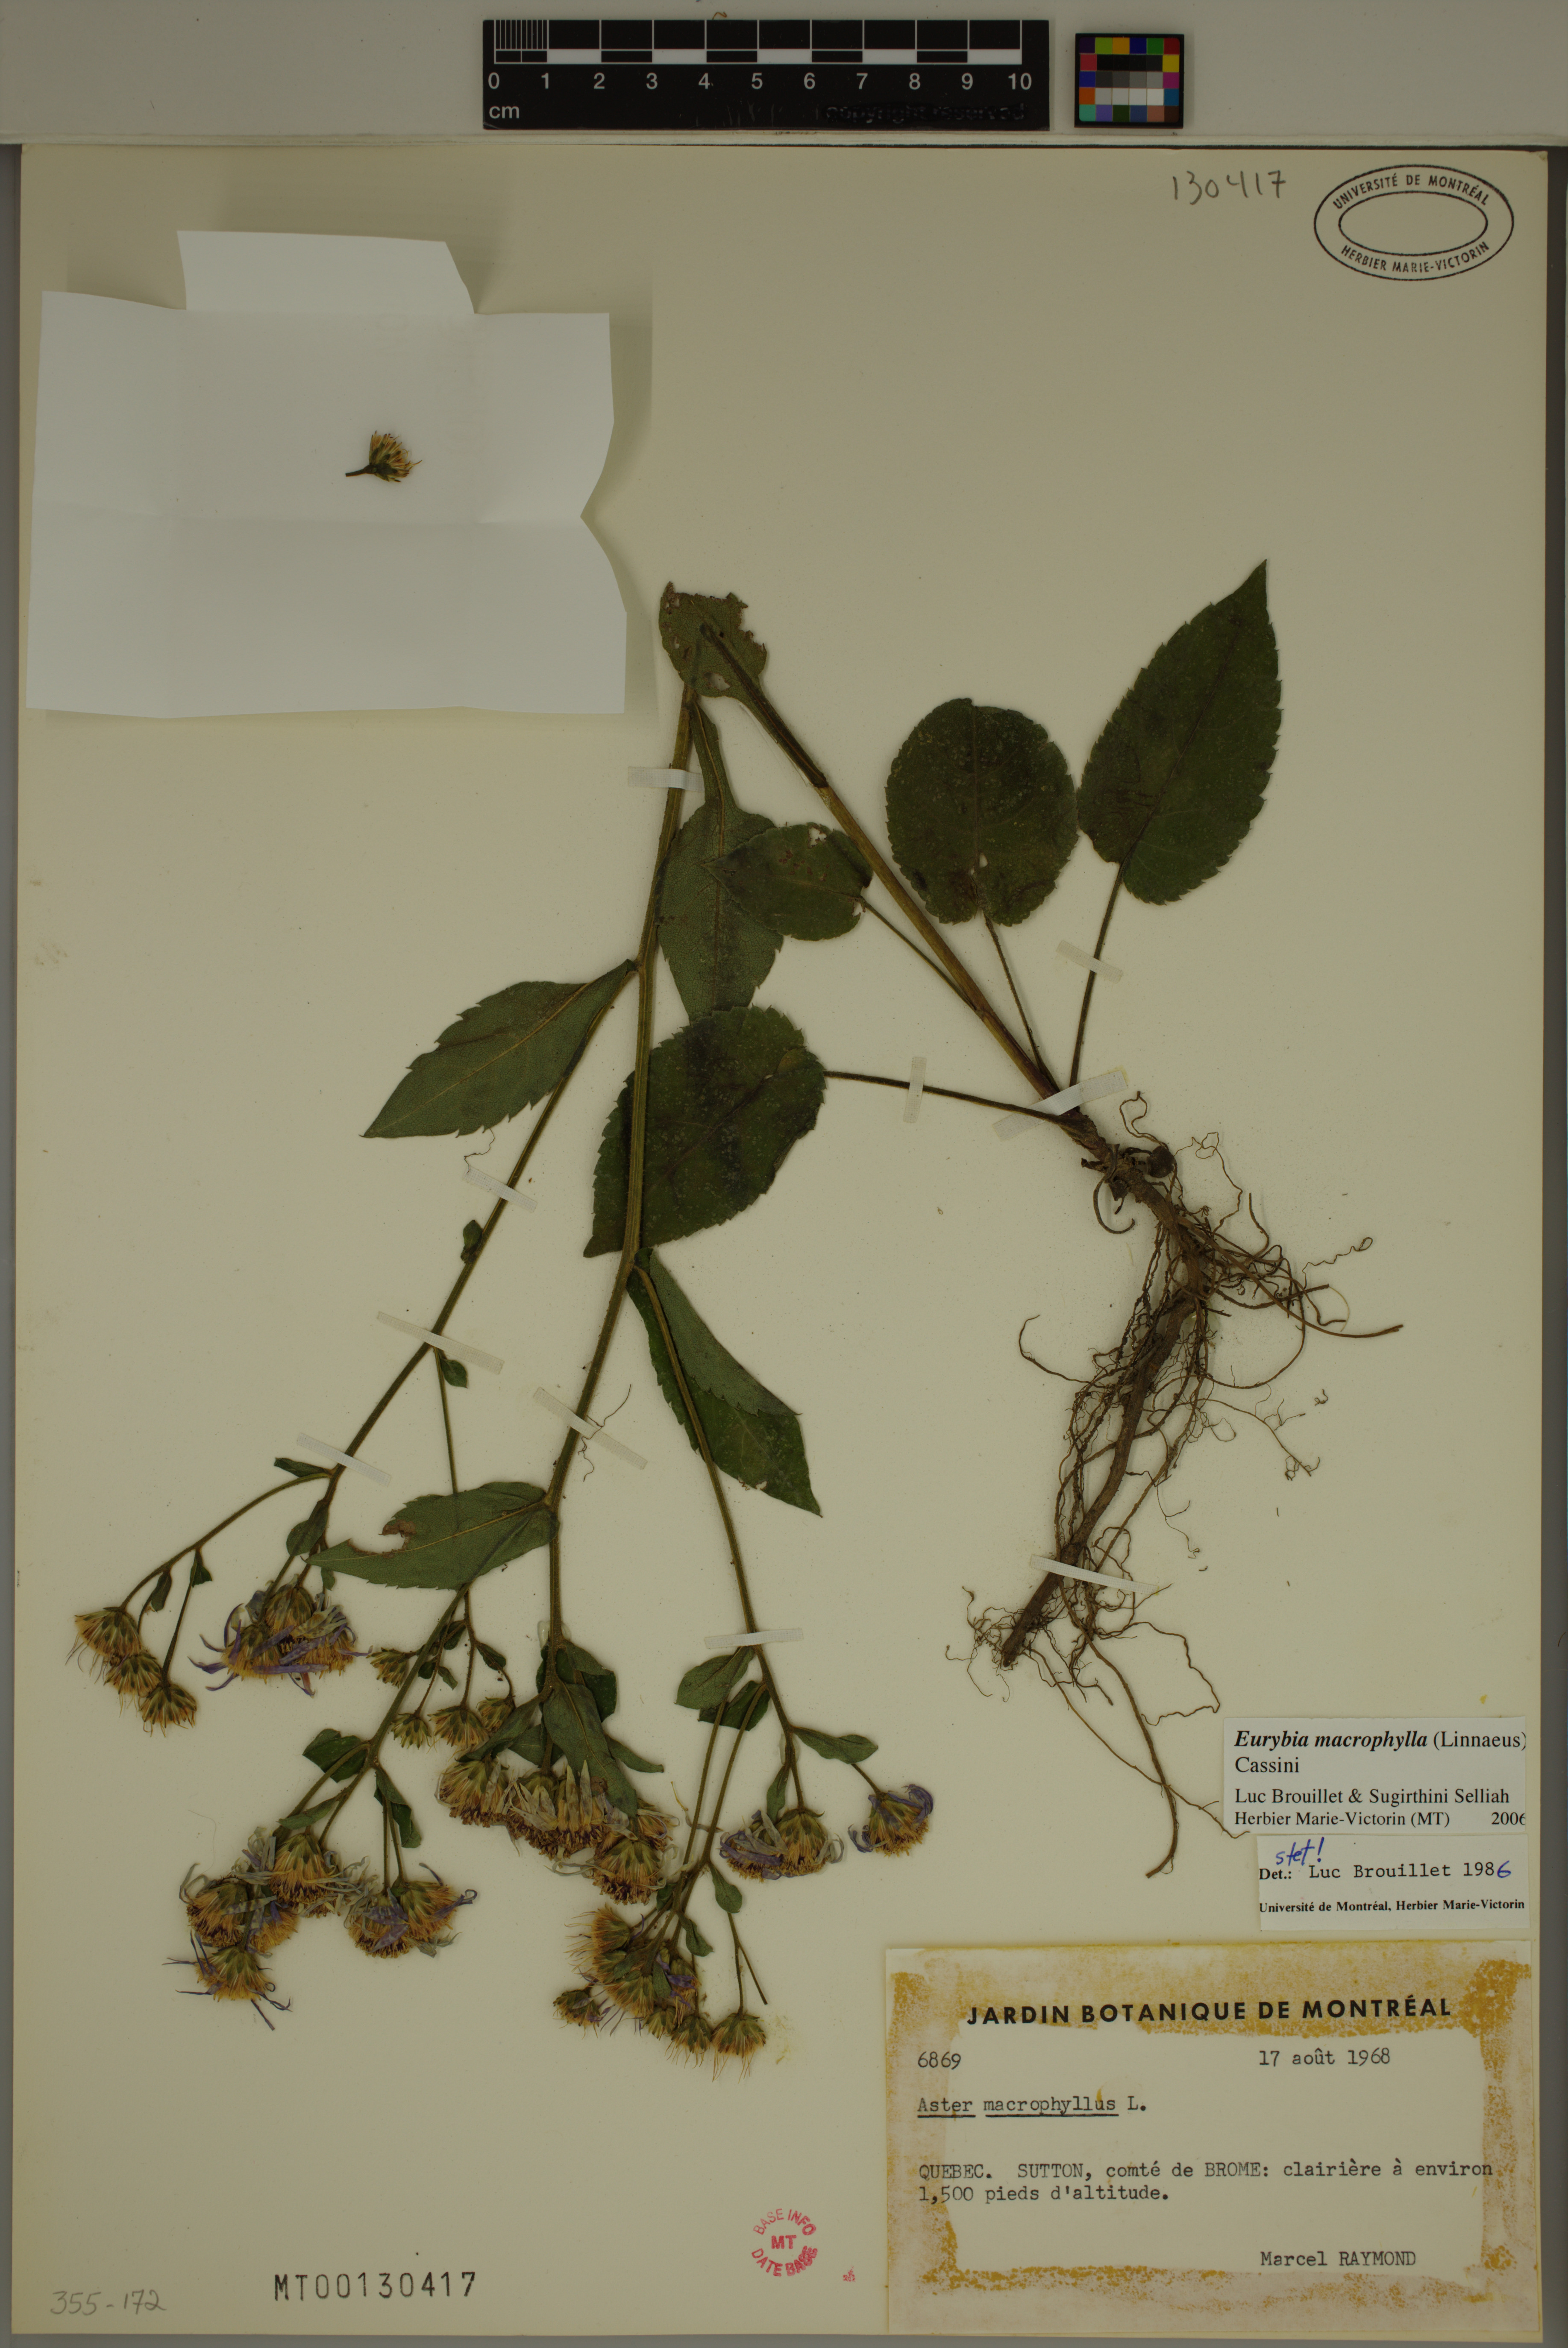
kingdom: Plantae
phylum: Tracheophyta
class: Magnoliopsida
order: Asterales
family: Asteraceae
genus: Eurybia
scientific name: Eurybia macrophylla
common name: Big-leaved aster
